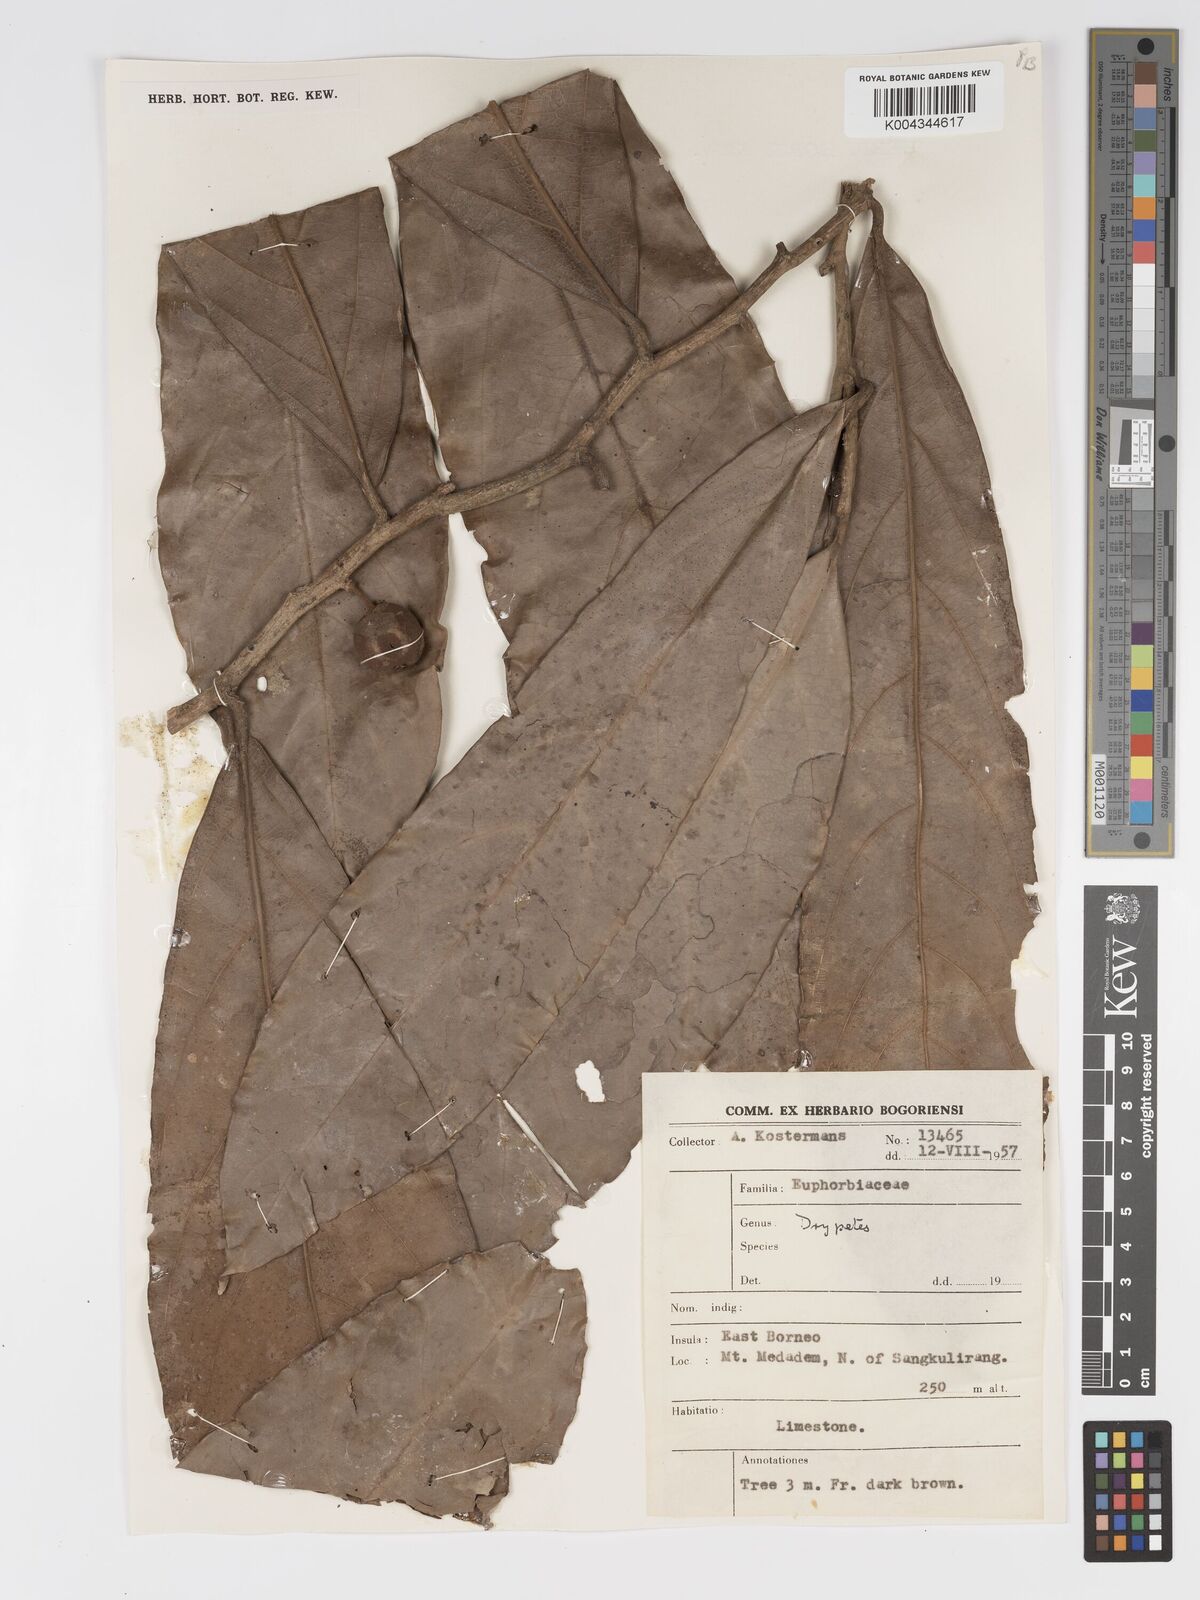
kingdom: Plantae
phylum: Tracheophyta
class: Magnoliopsida
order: Malpighiales
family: Putranjivaceae
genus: Drypetes
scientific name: Drypetes longifolia
